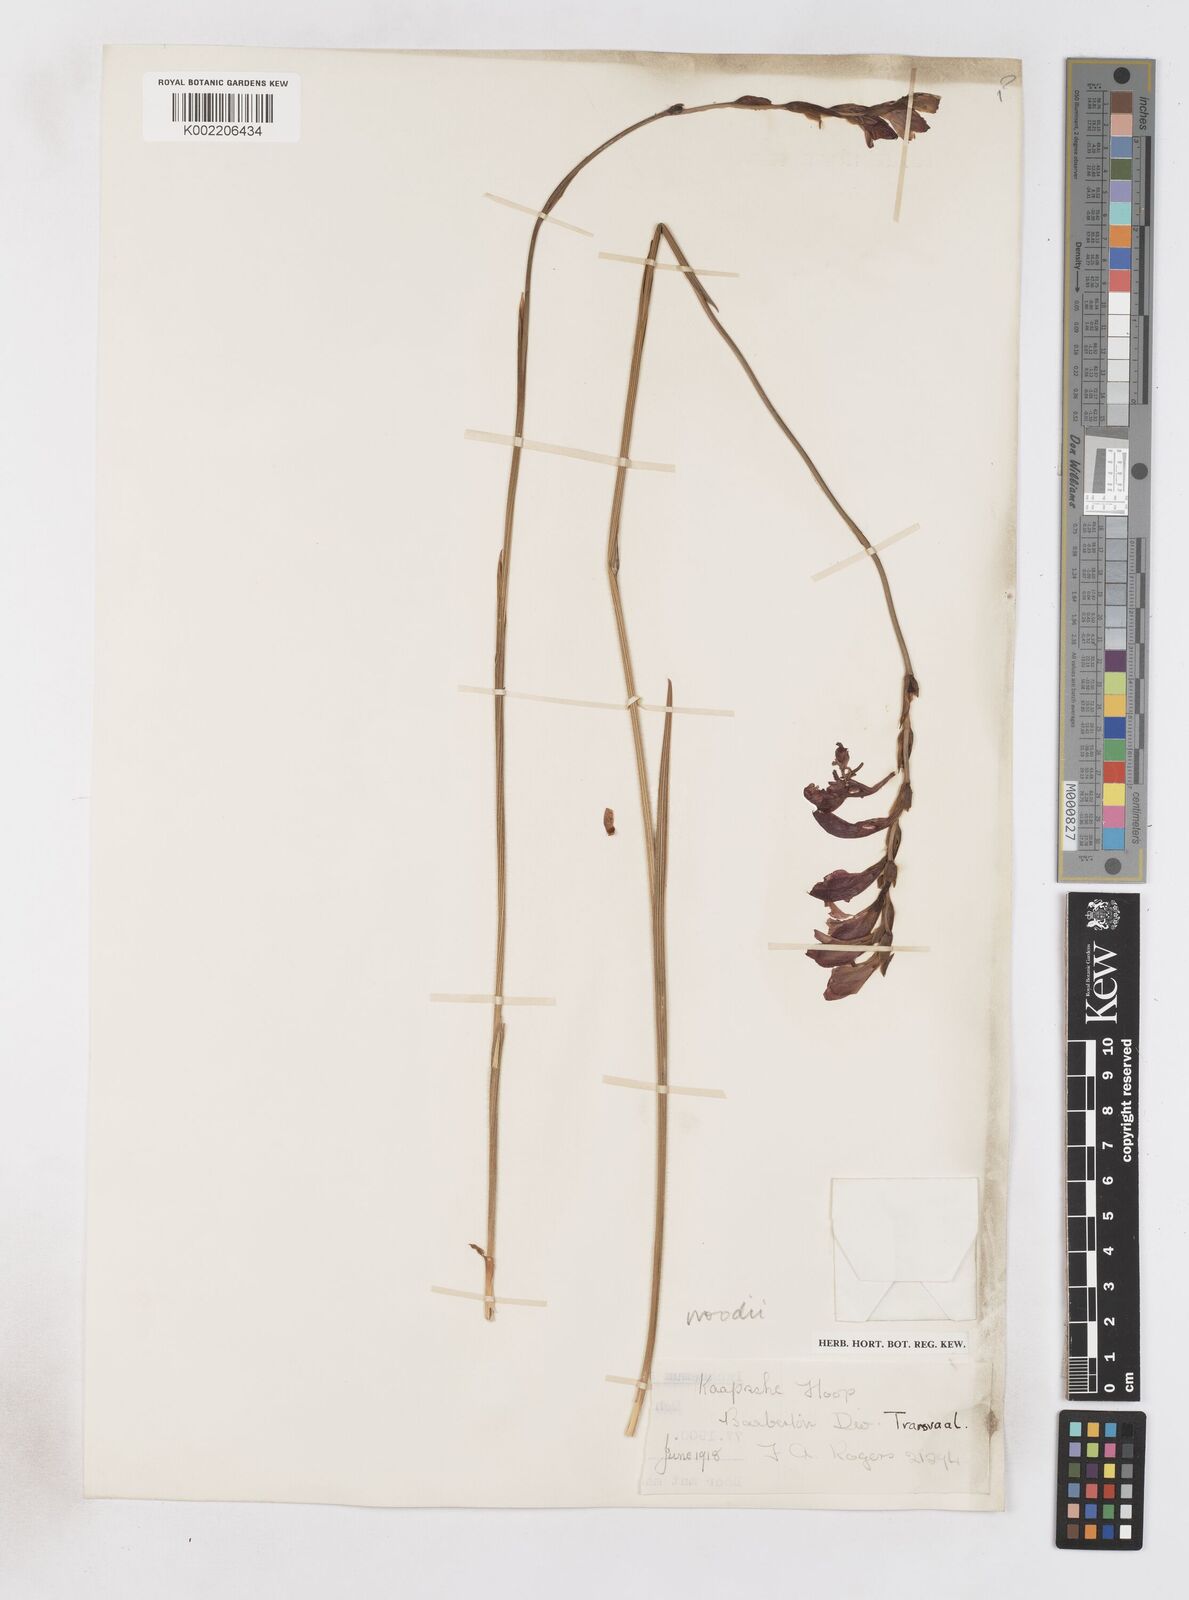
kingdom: Plantae
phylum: Tracheophyta
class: Liliopsida
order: Asparagales
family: Iridaceae
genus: Gladiolus
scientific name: Gladiolus woodii
